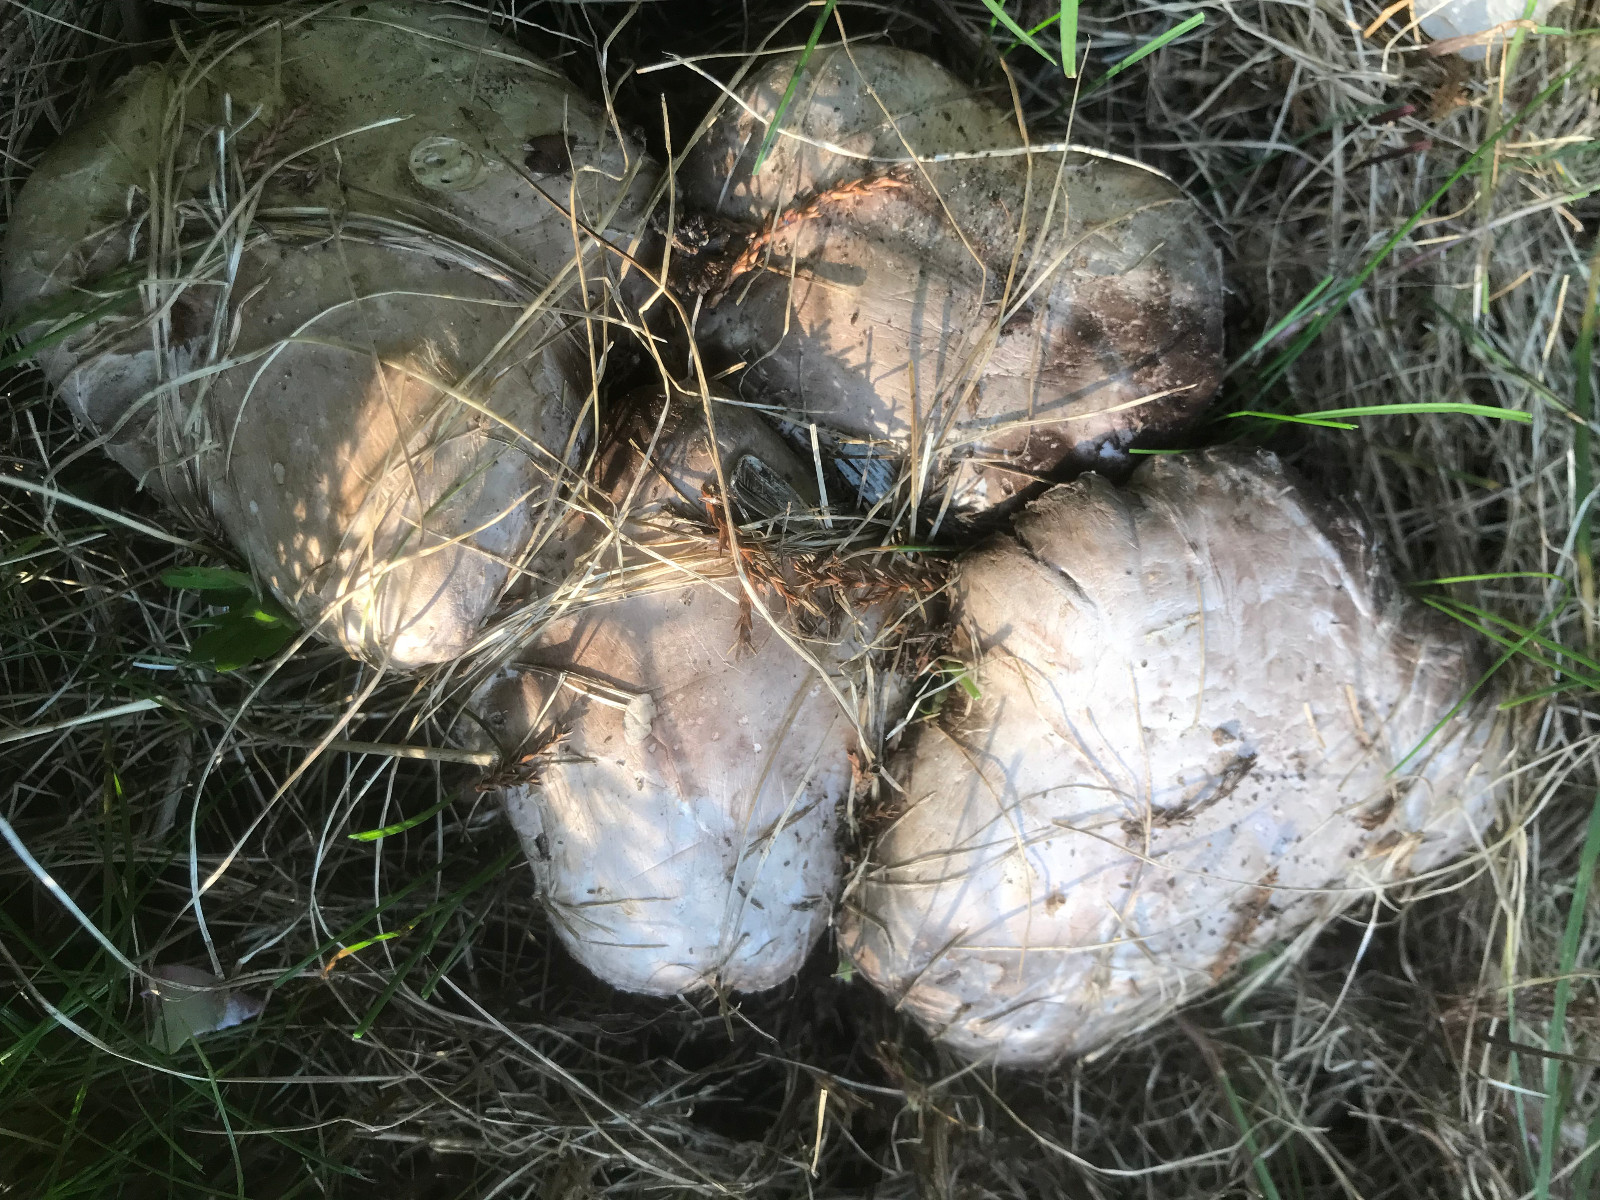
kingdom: Fungi
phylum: Basidiomycota
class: Agaricomycetes
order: Agaricales
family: Agaricaceae
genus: Agaricus
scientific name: Agaricus
